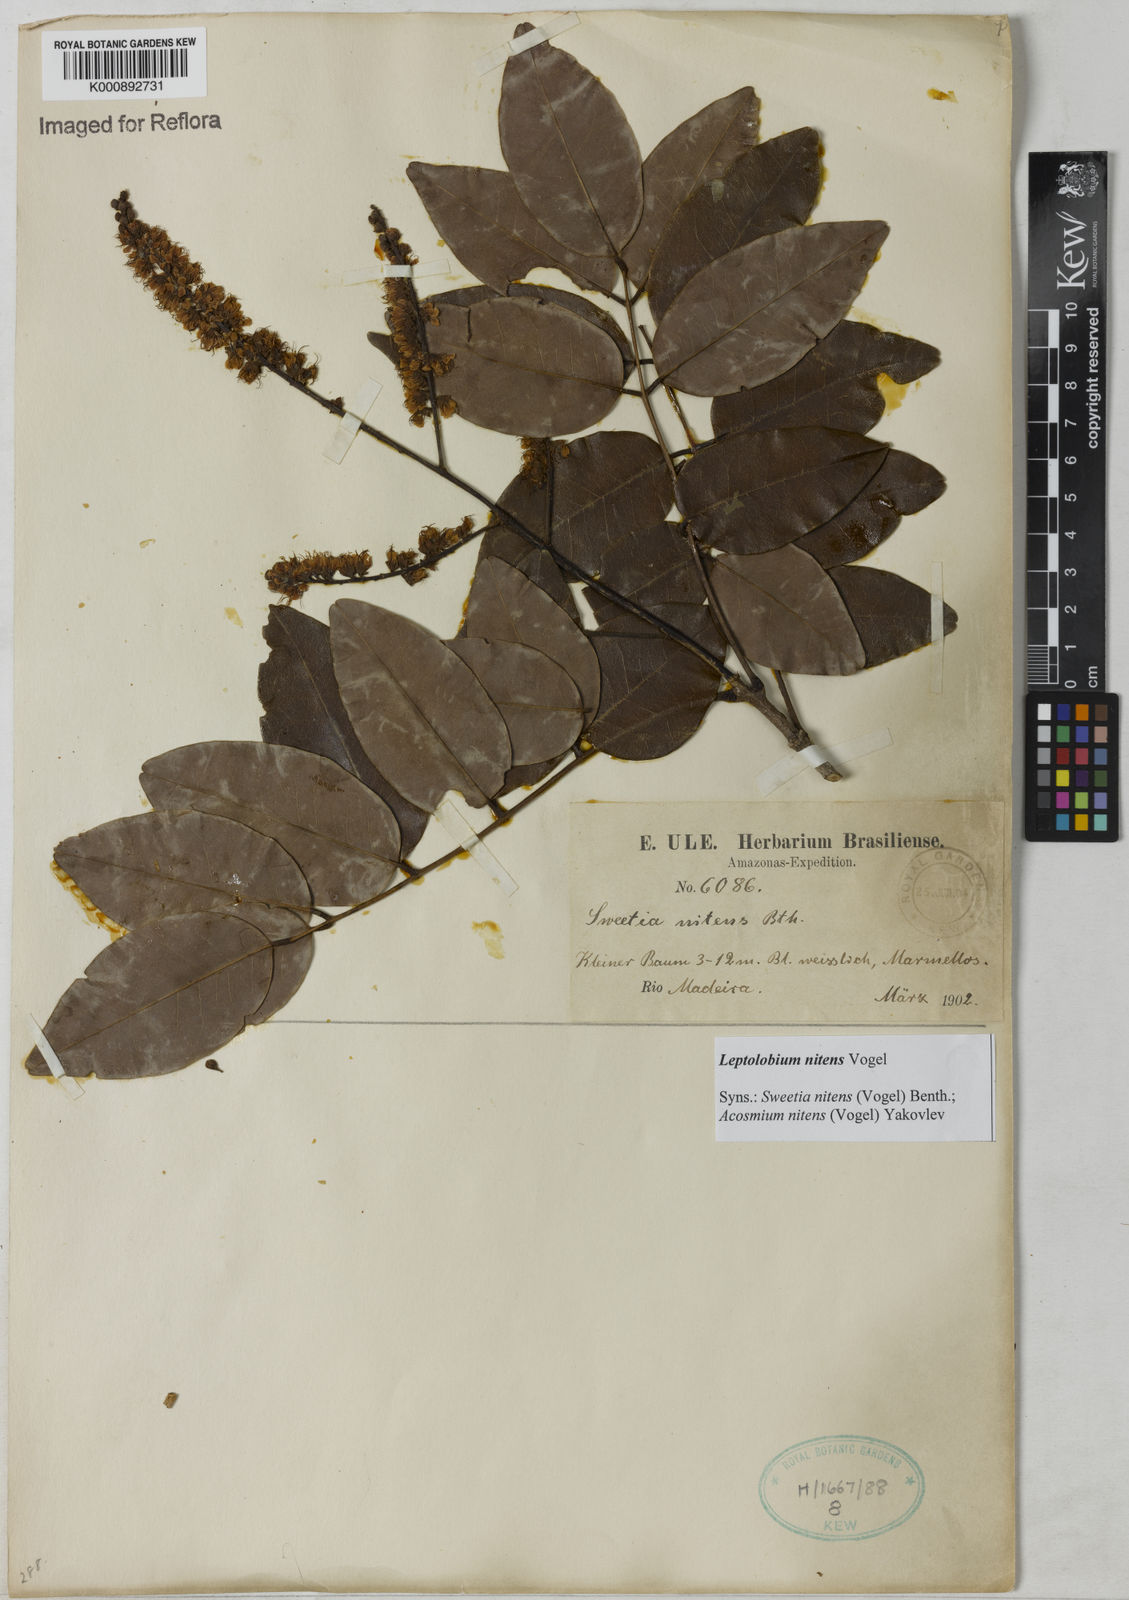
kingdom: Plantae
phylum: Tracheophyta
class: Magnoliopsida
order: Fabales
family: Fabaceae
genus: Leptolobium
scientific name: Leptolobium nitens
